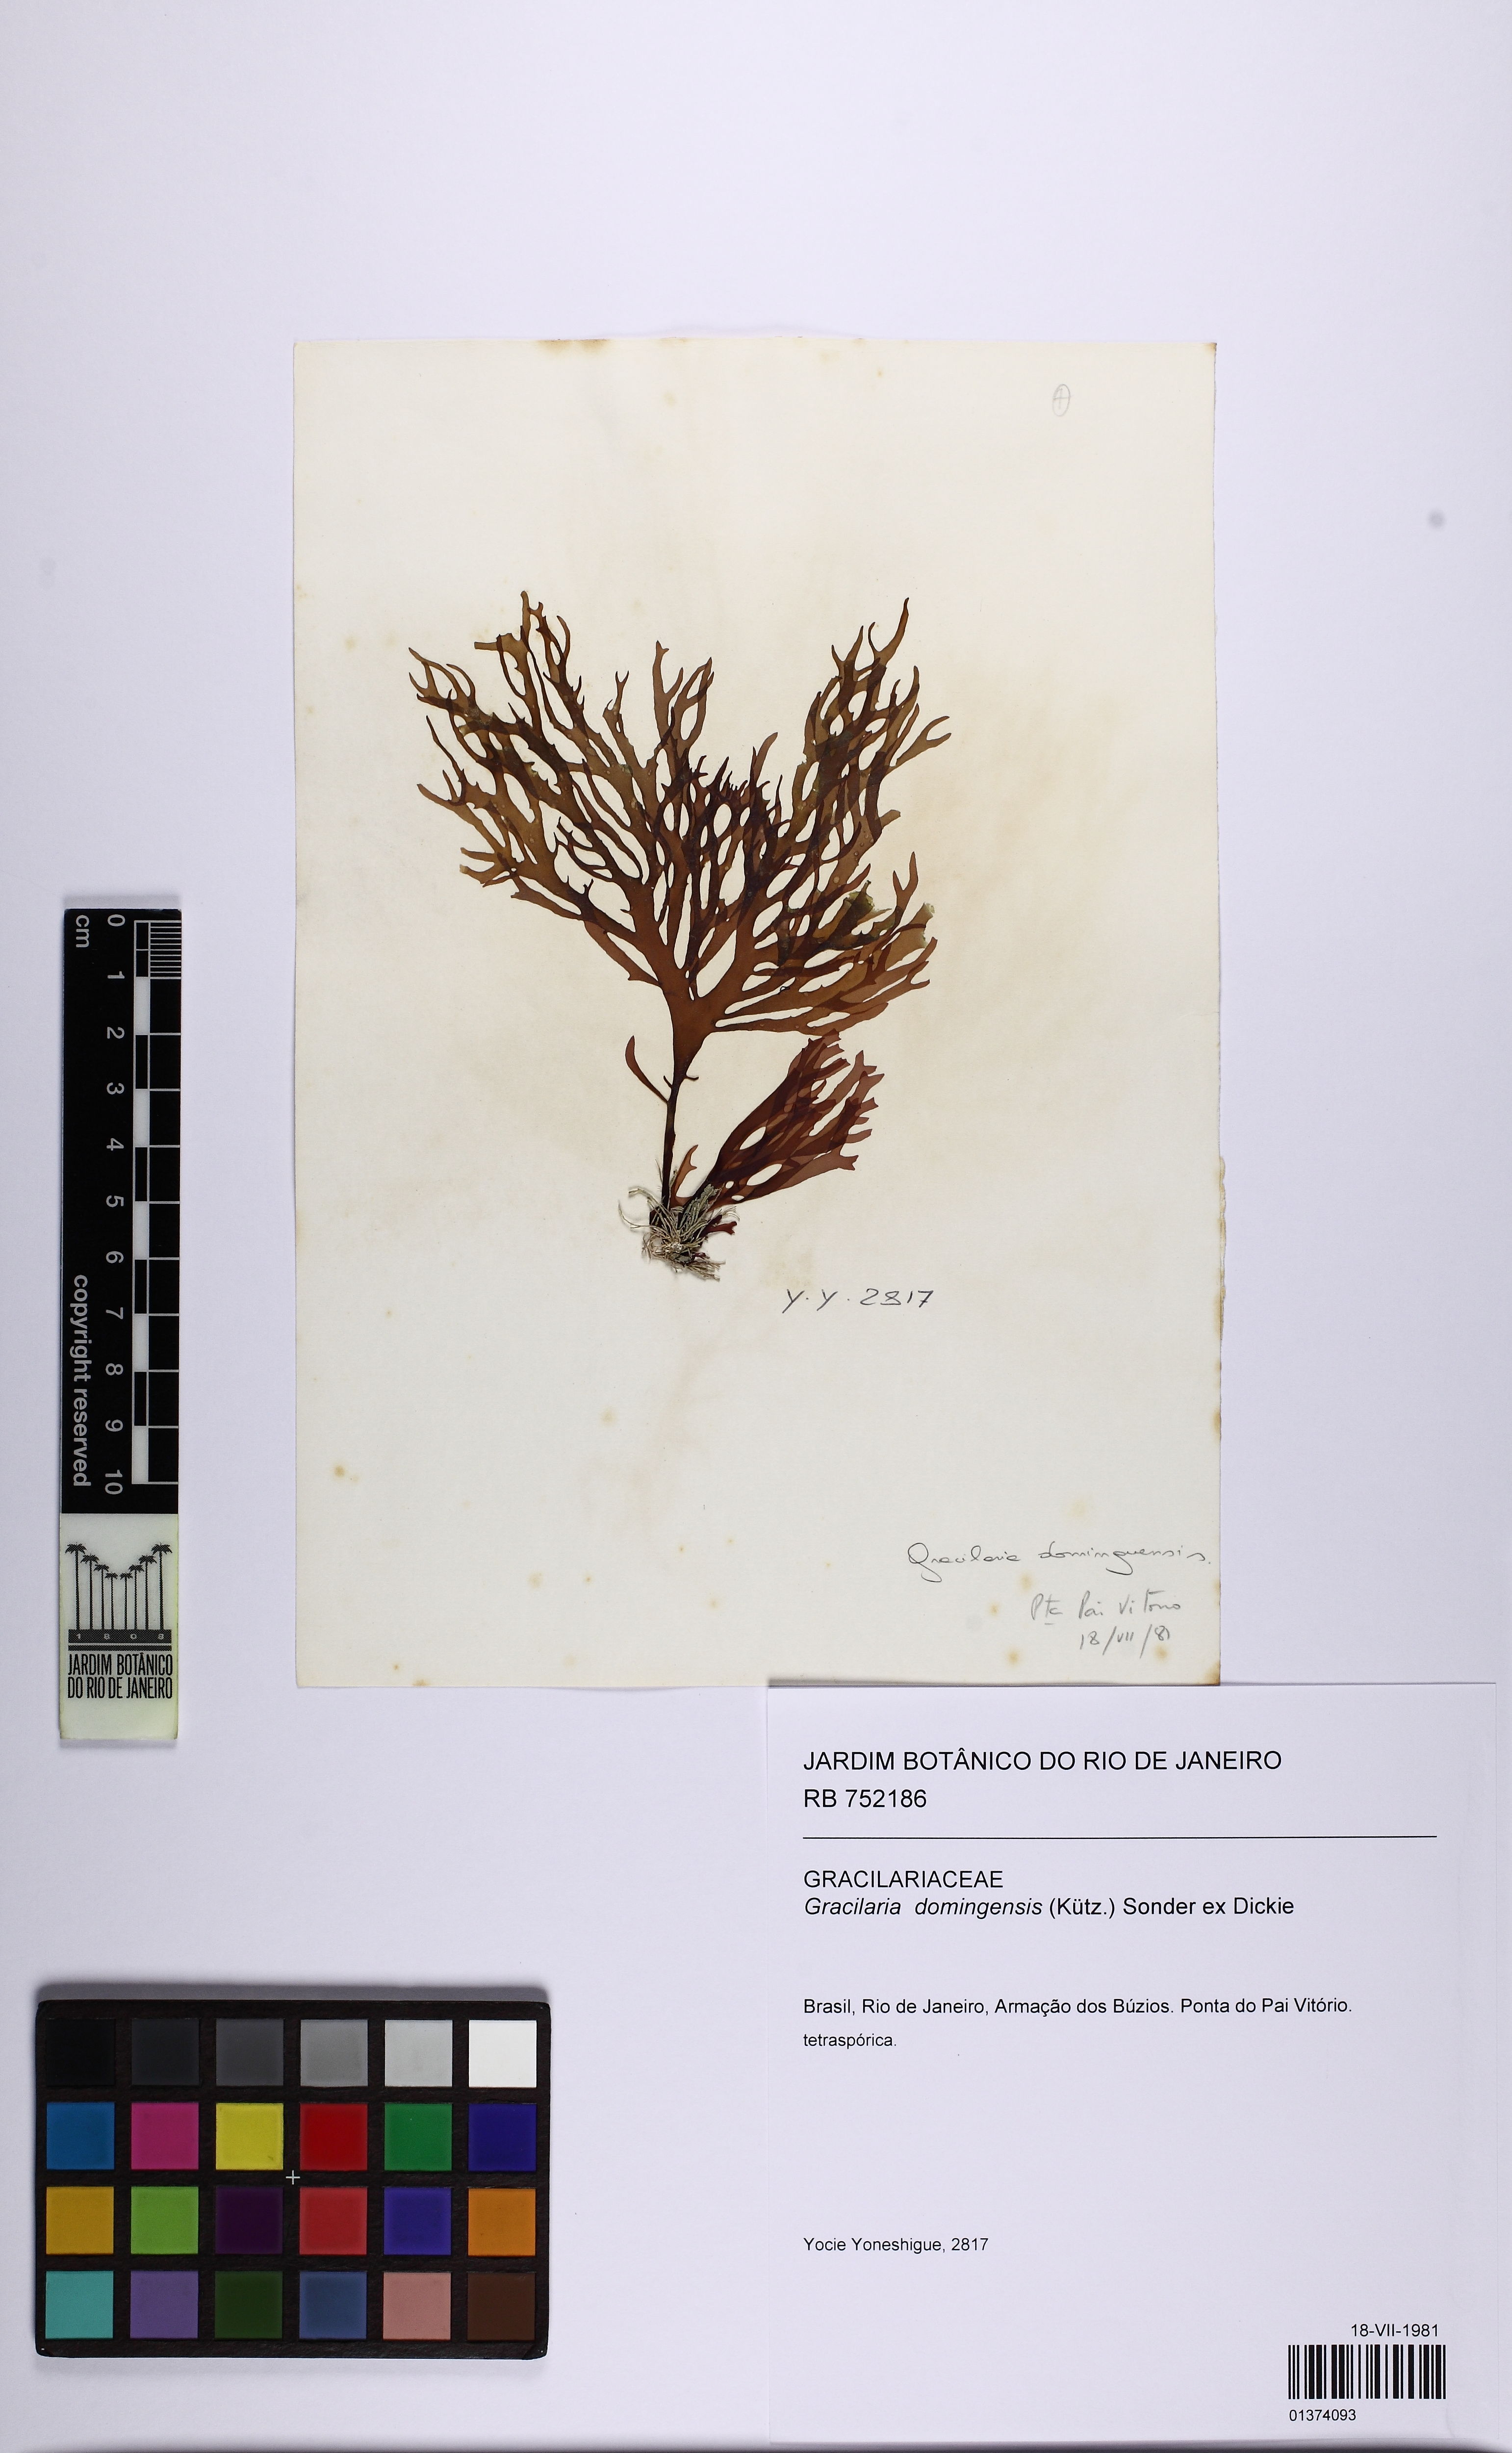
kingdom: Plantae
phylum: Rhodophyta
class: Florideophyceae
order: Gracilariales
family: Gracilariaceae
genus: Gracilaria
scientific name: Gracilaria domingensis
